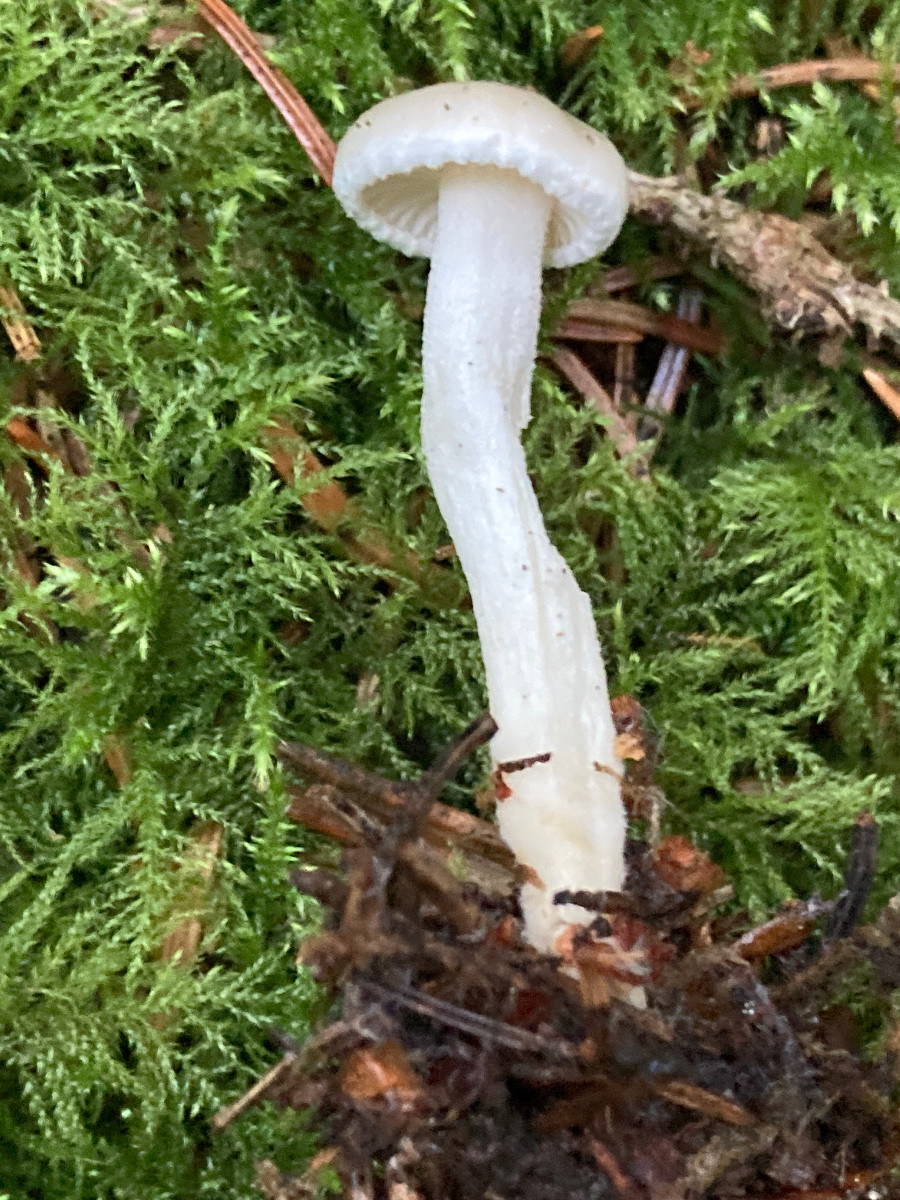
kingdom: Fungi
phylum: Basidiomycota
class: Agaricomycetes
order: Agaricales
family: Hygrophoraceae
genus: Hygrophorus
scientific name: Hygrophorus exiguus
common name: spinkel sneglehat
